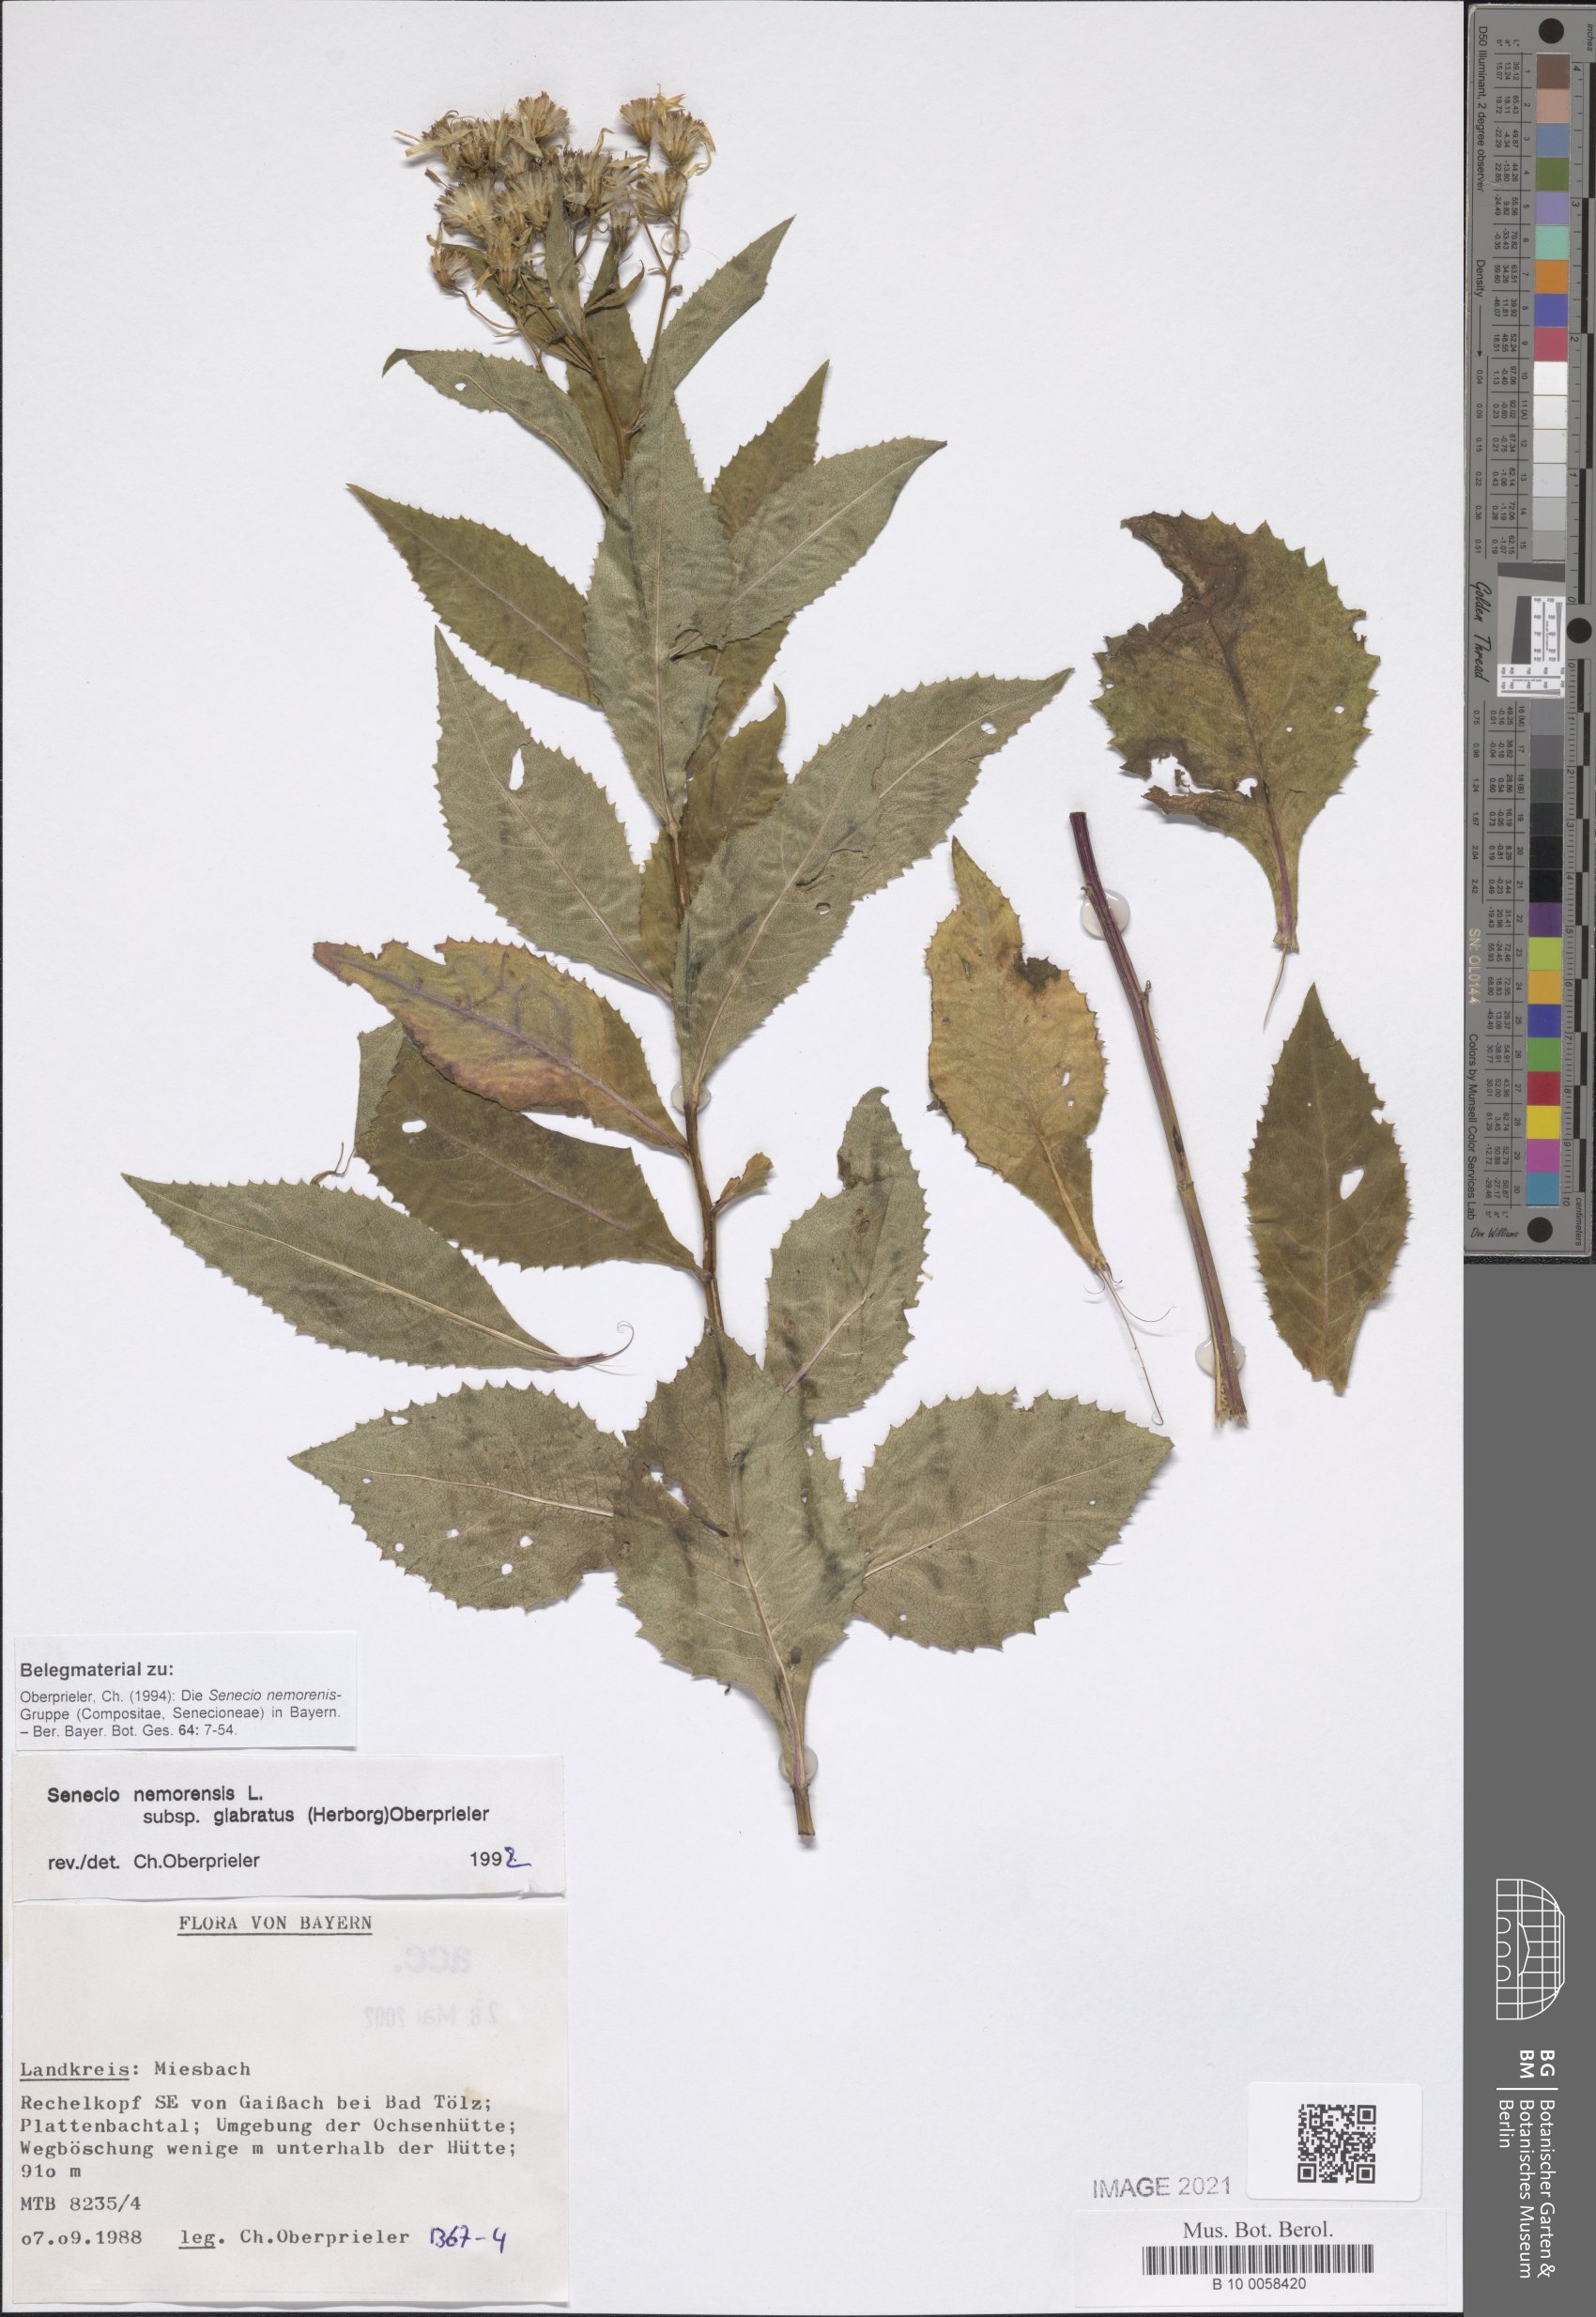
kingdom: Plantae
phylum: Tracheophyta
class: Magnoliopsida
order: Asterales
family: Asteraceae
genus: Senecio
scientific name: Senecio germanicus
